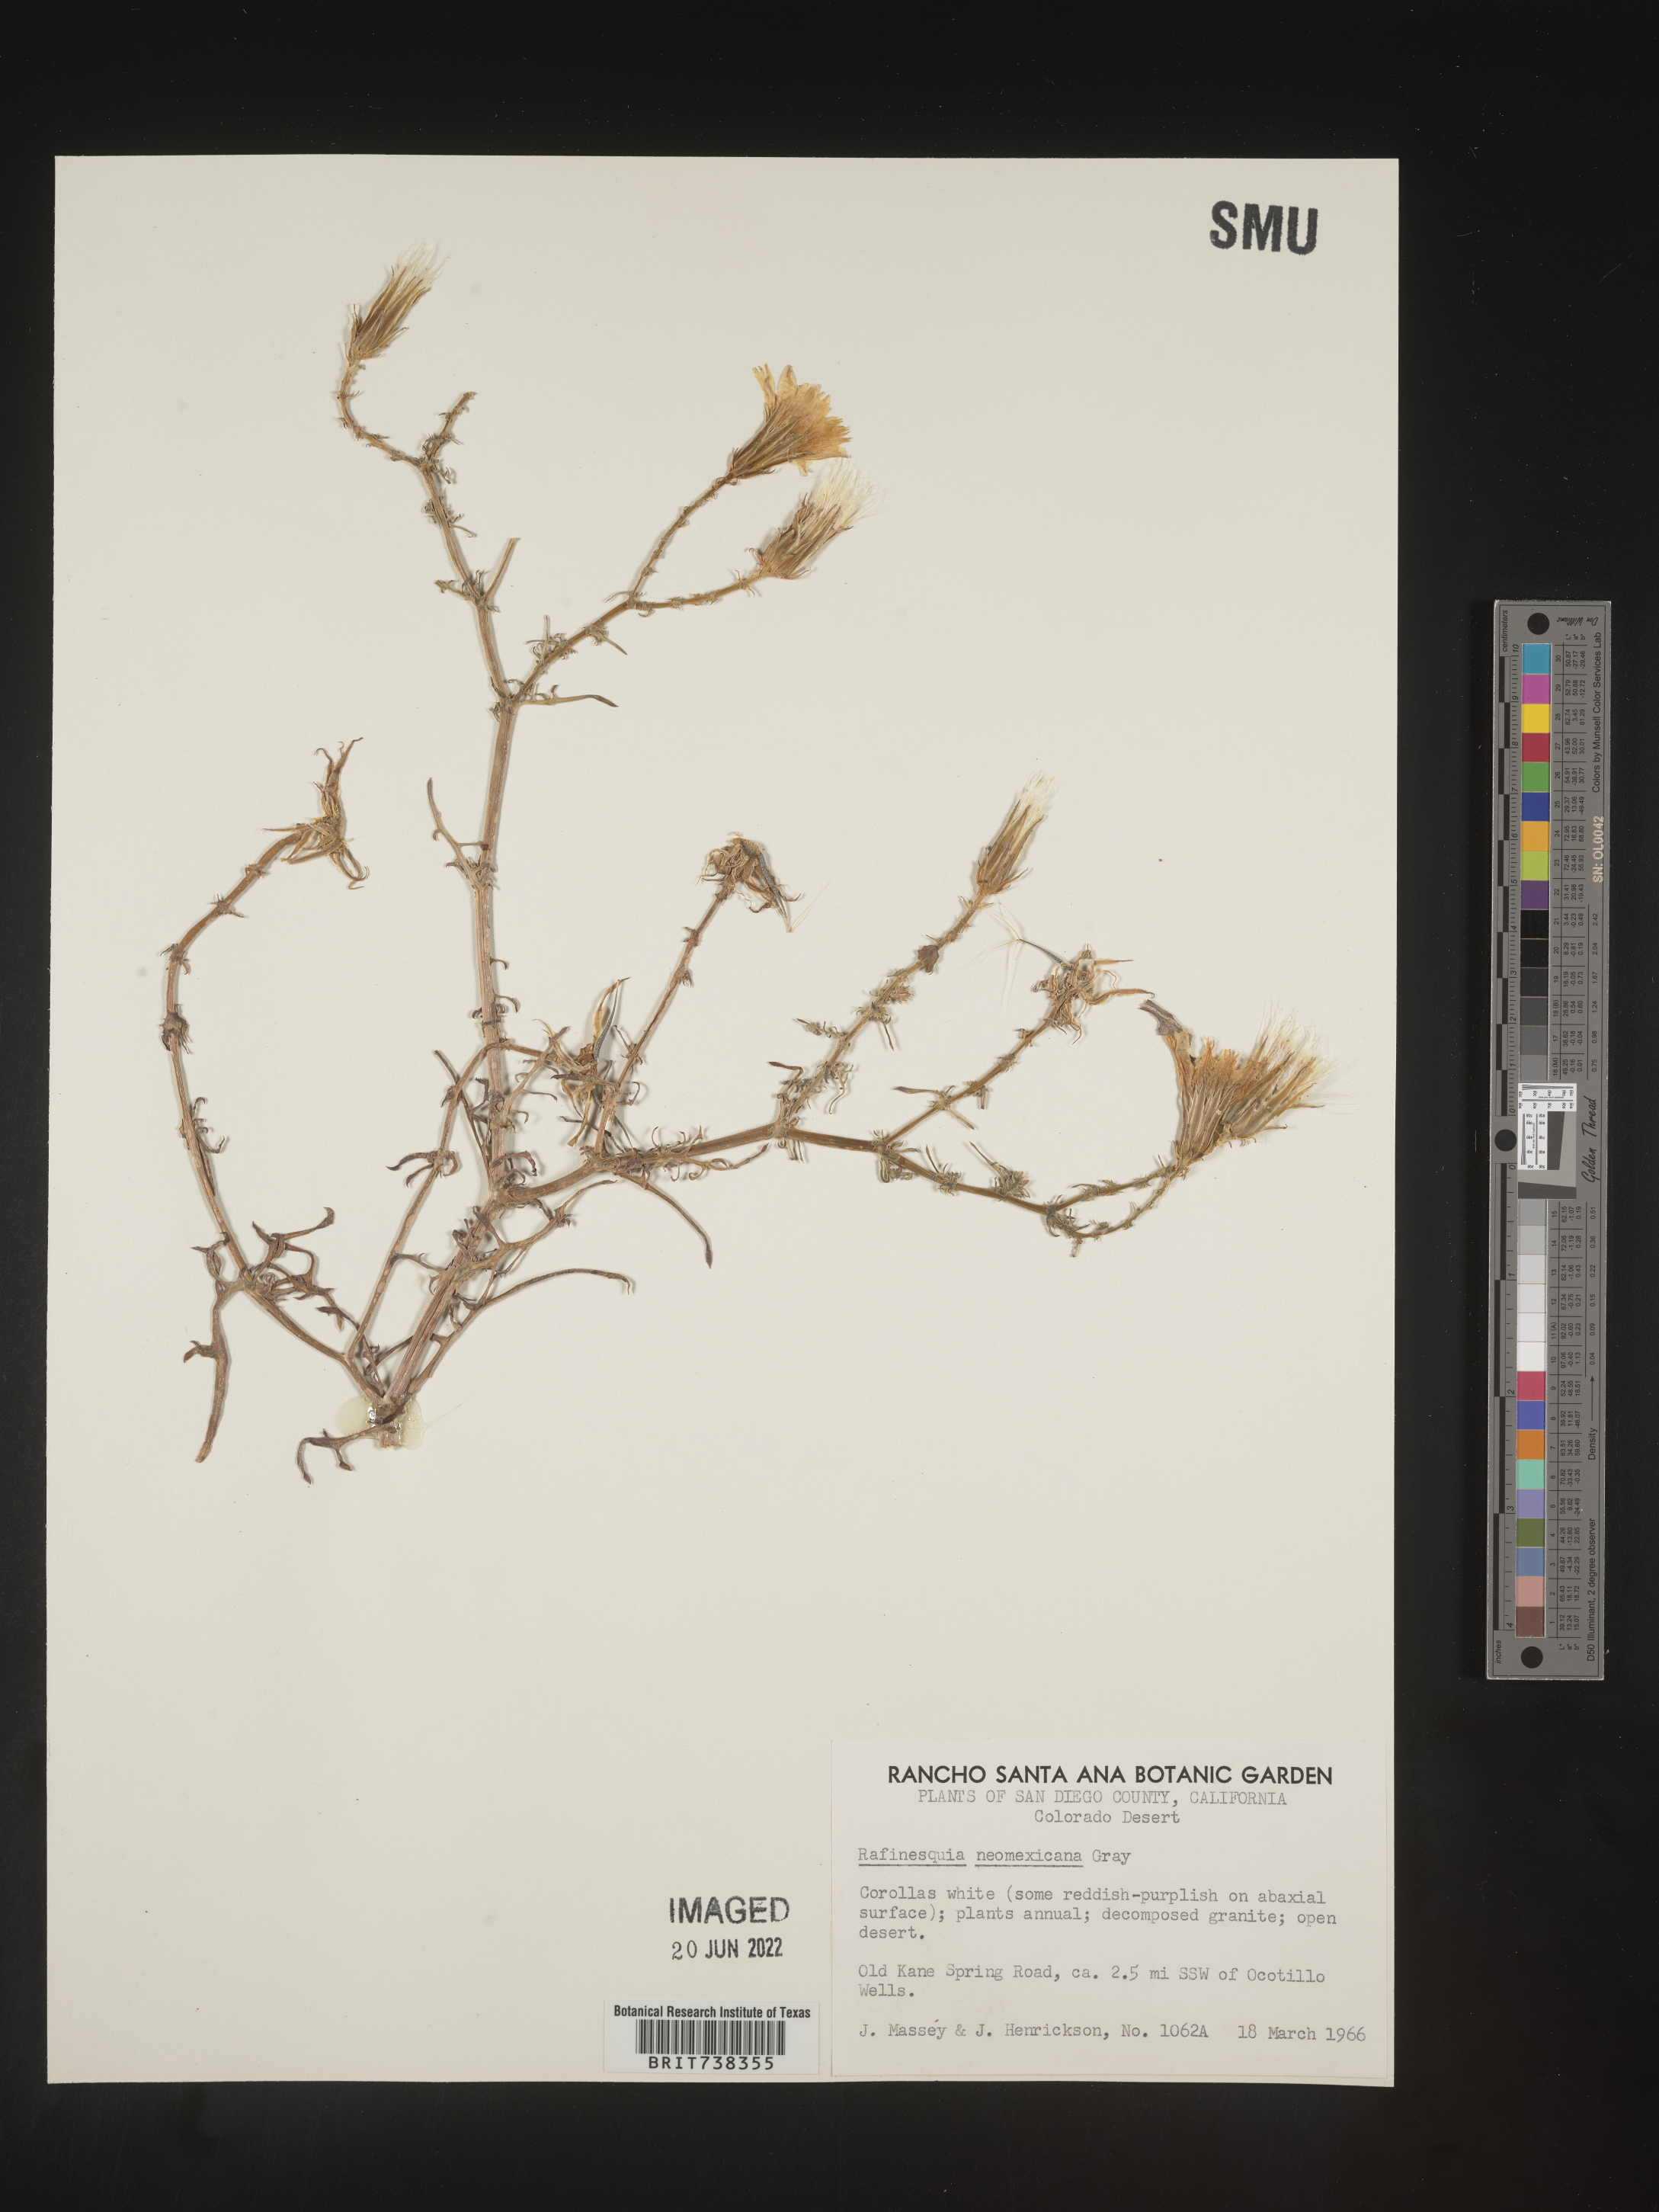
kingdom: Plantae
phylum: Tracheophyta
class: Magnoliopsida
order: Asterales
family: Asteraceae
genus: Rafinesquia
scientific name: Rafinesquia
